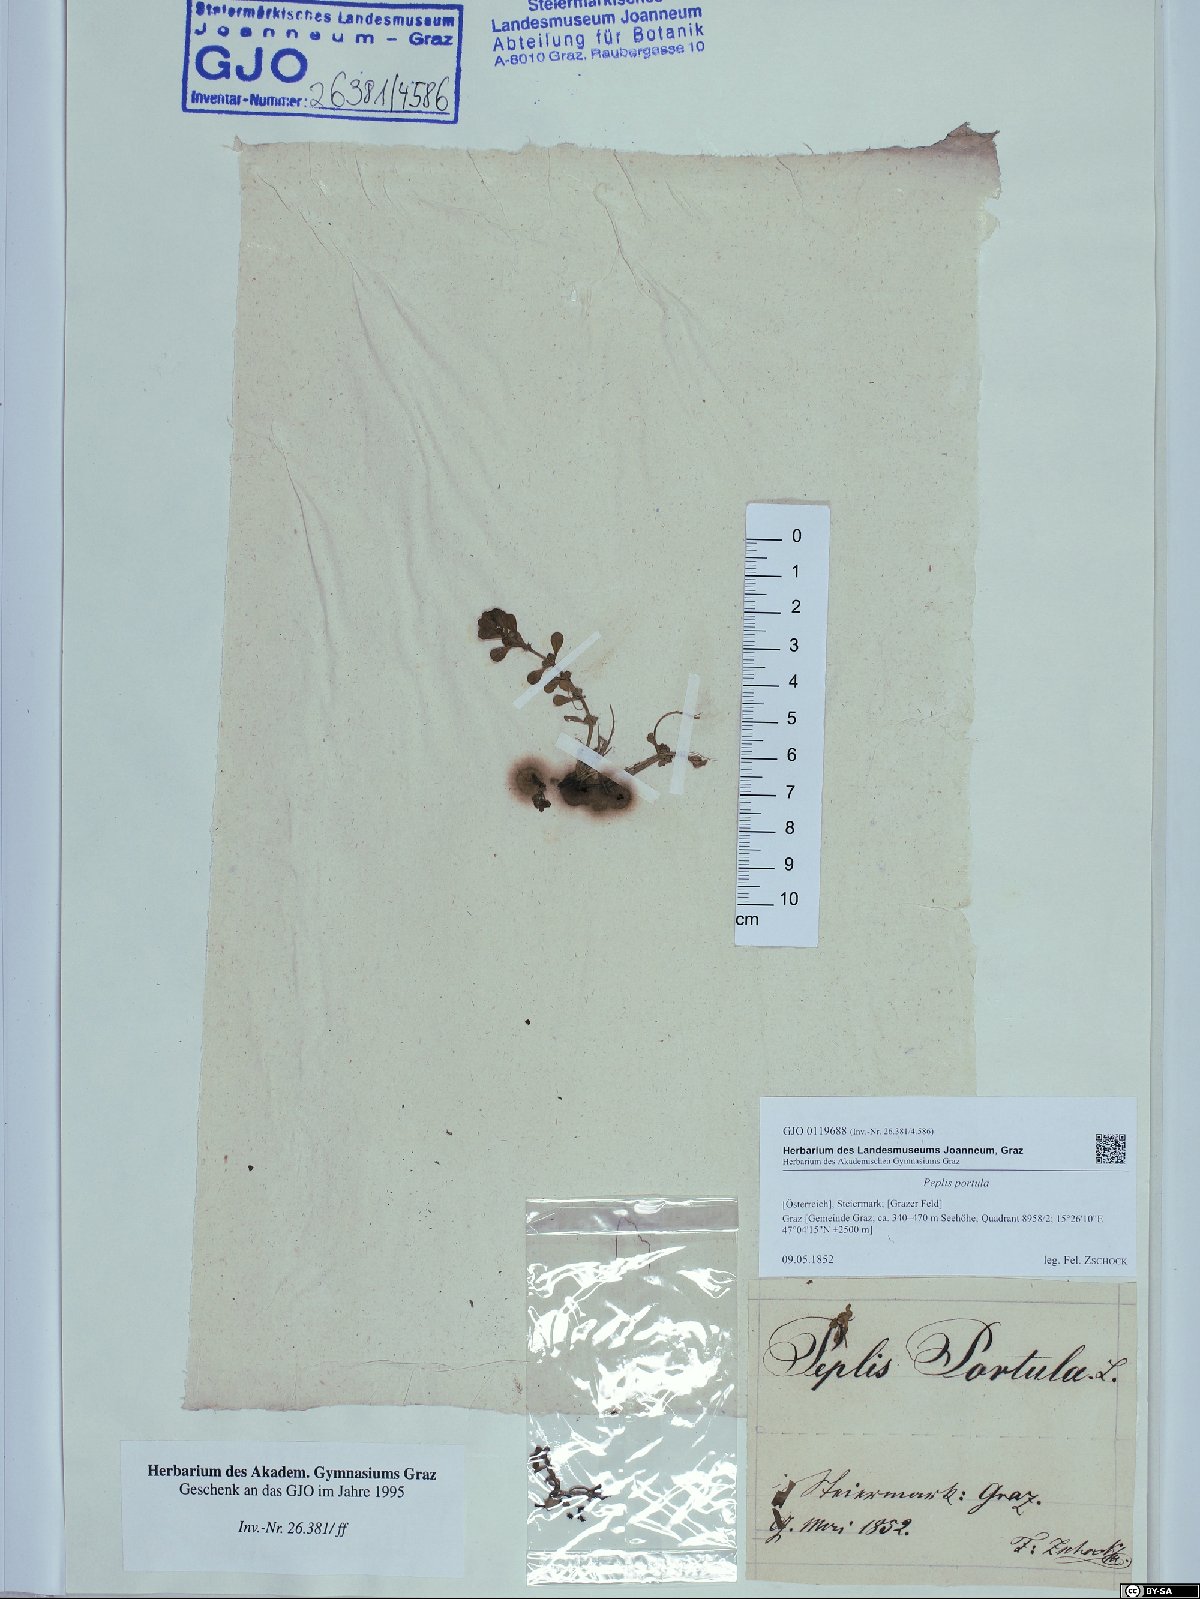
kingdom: Plantae
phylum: Tracheophyta
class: Magnoliopsida
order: Myrtales
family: Lythraceae
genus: Lythrum
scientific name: Lythrum portula
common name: Water purslane
